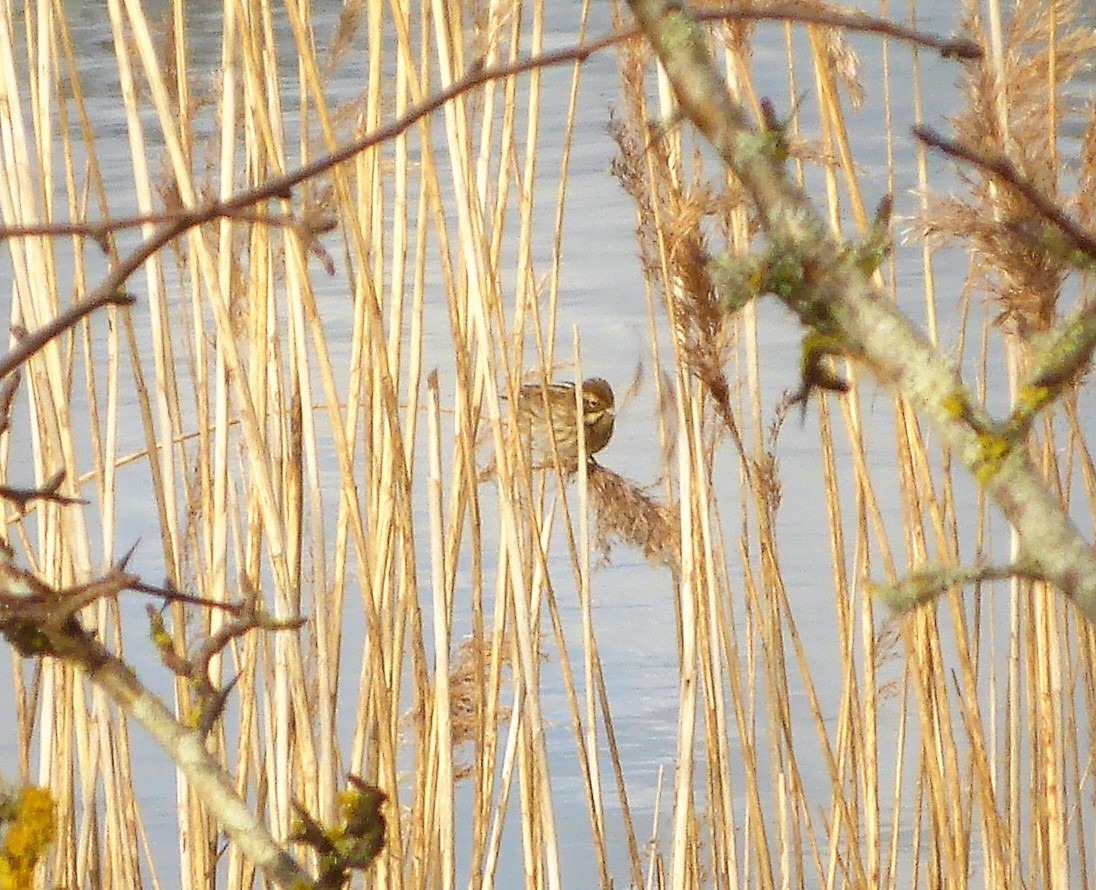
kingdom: Animalia
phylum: Chordata
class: Aves
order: Passeriformes
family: Emberizidae
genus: Emberiza
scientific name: Emberiza schoeniclus
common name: Rørspurv
